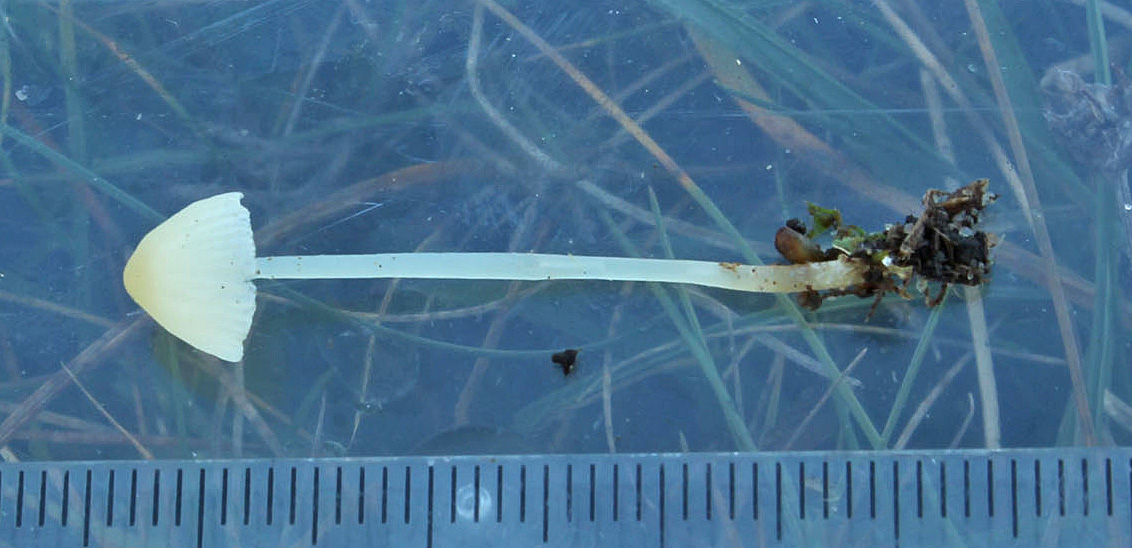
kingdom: Fungi
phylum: Basidiomycota
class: Agaricomycetes
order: Agaricales
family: Mycenaceae
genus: Atheniella
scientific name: Atheniella flavoalba
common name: gulhvid huesvamp
